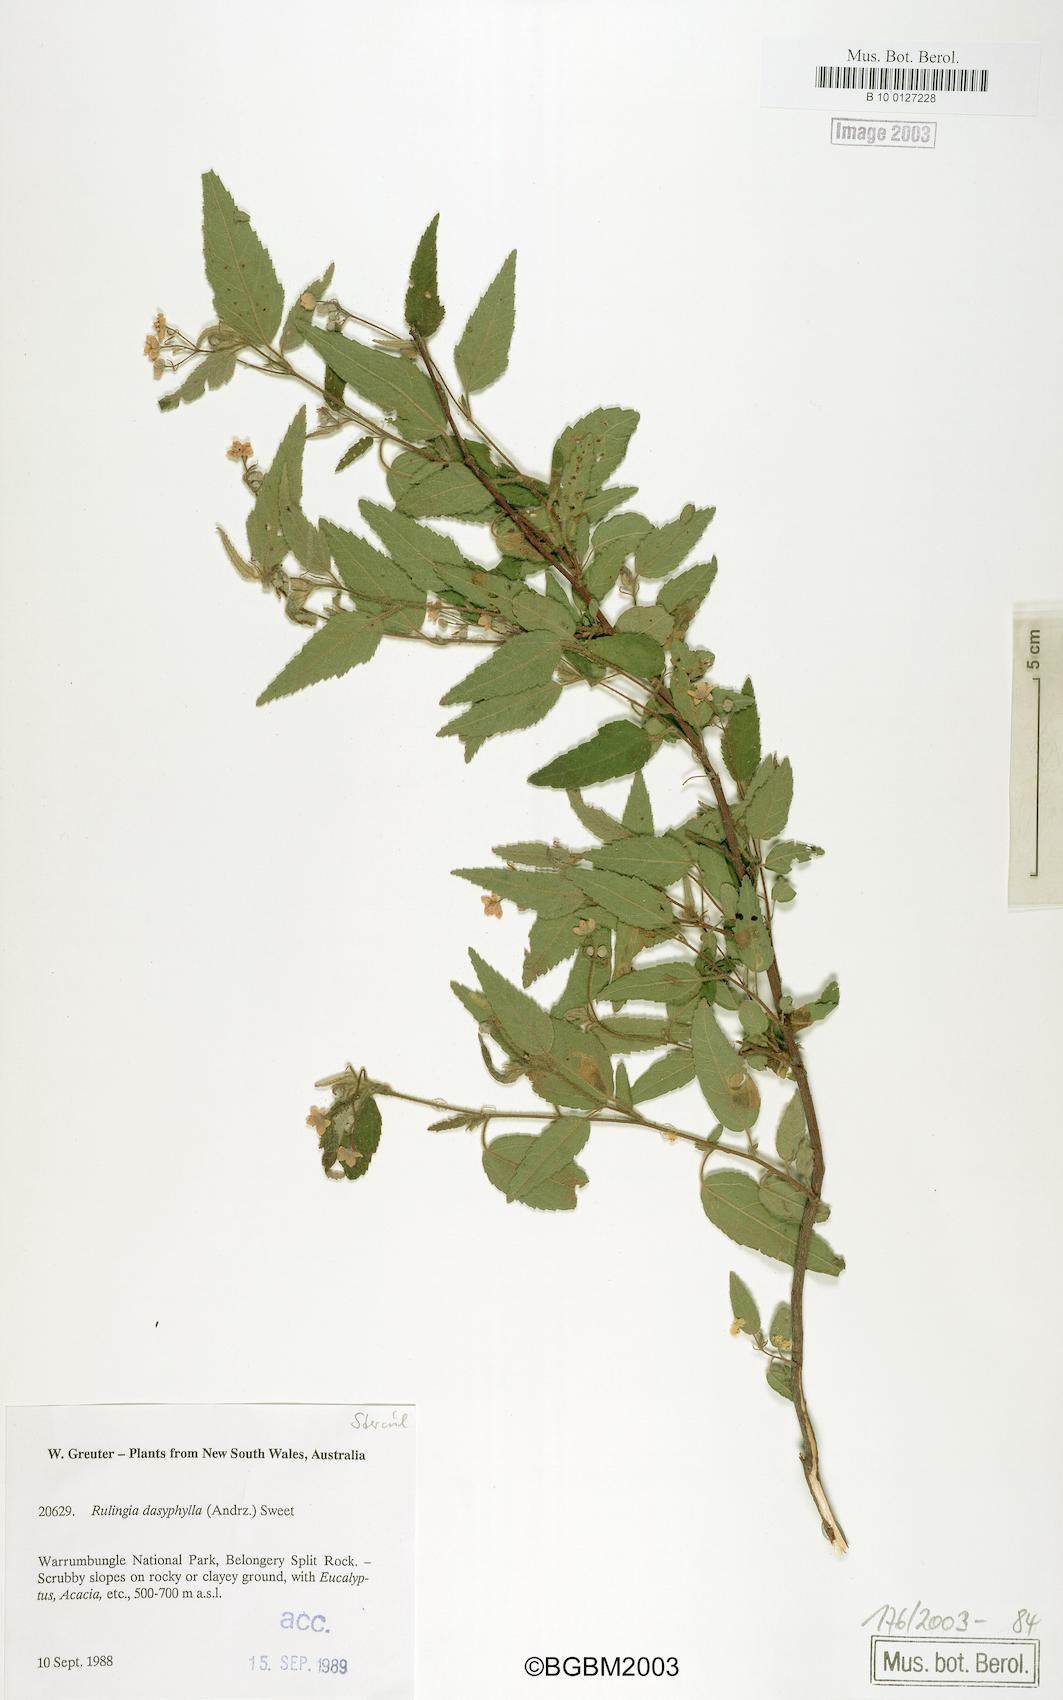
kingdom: Plantae
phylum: Tracheophyta
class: Magnoliopsida
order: Malvales
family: Malvaceae
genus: Commersonia
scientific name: Commersonia dasyphylla
